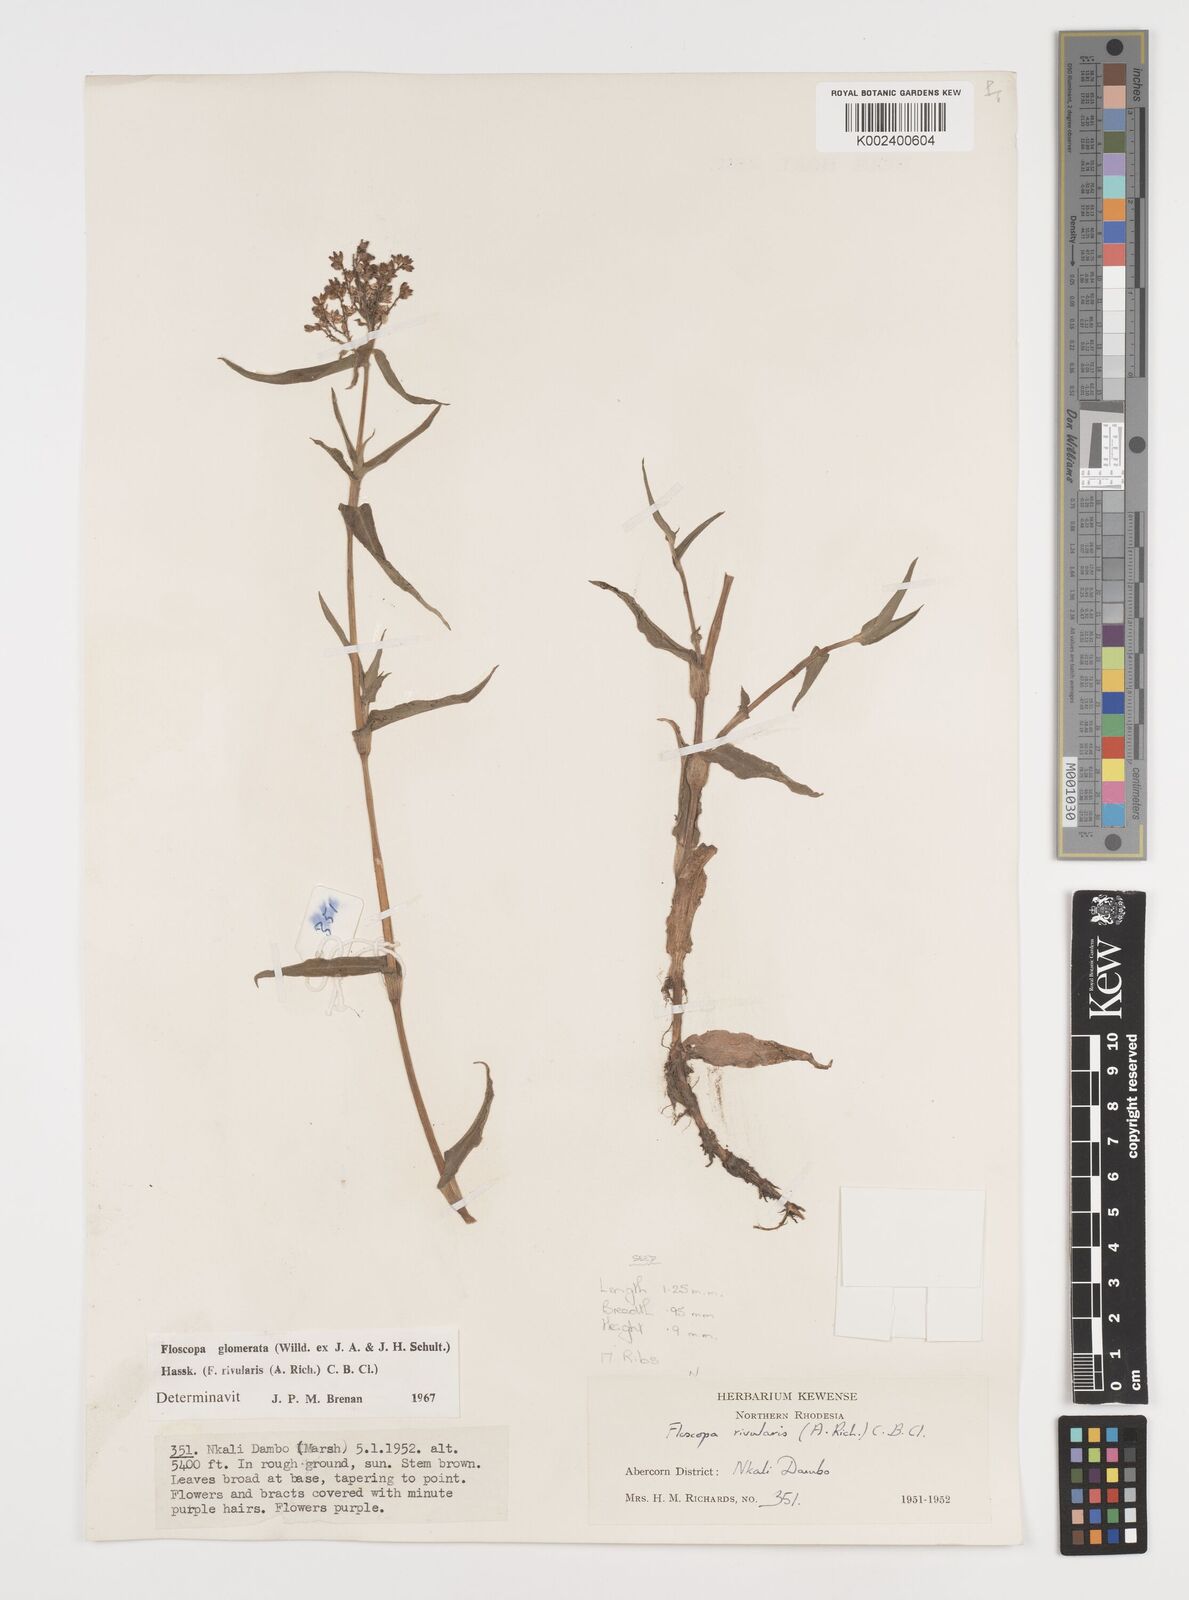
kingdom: Plantae
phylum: Tracheophyta
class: Liliopsida
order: Commelinales
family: Commelinaceae
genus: Floscopa
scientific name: Floscopa glomerata
